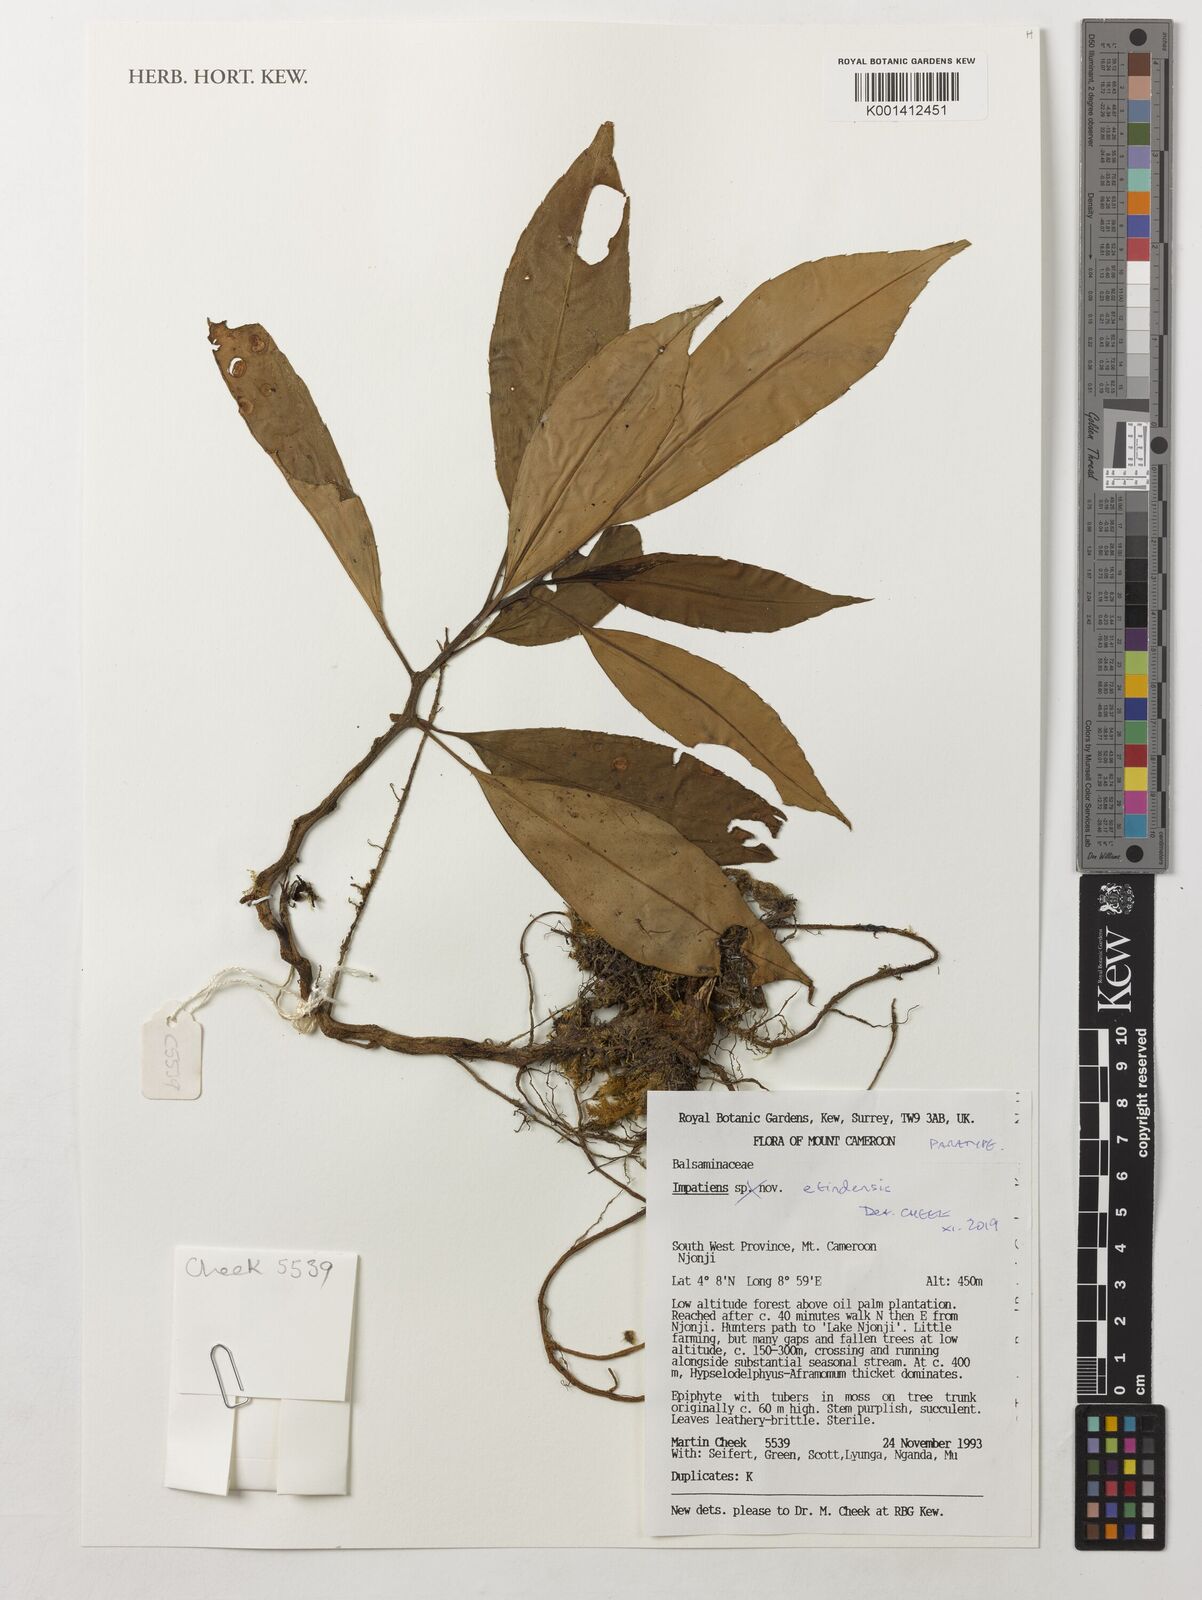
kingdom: Plantae
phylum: Tracheophyta
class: Magnoliopsida
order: Ericales
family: Balsaminaceae
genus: Impatiens
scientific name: Impatiens etindensis
